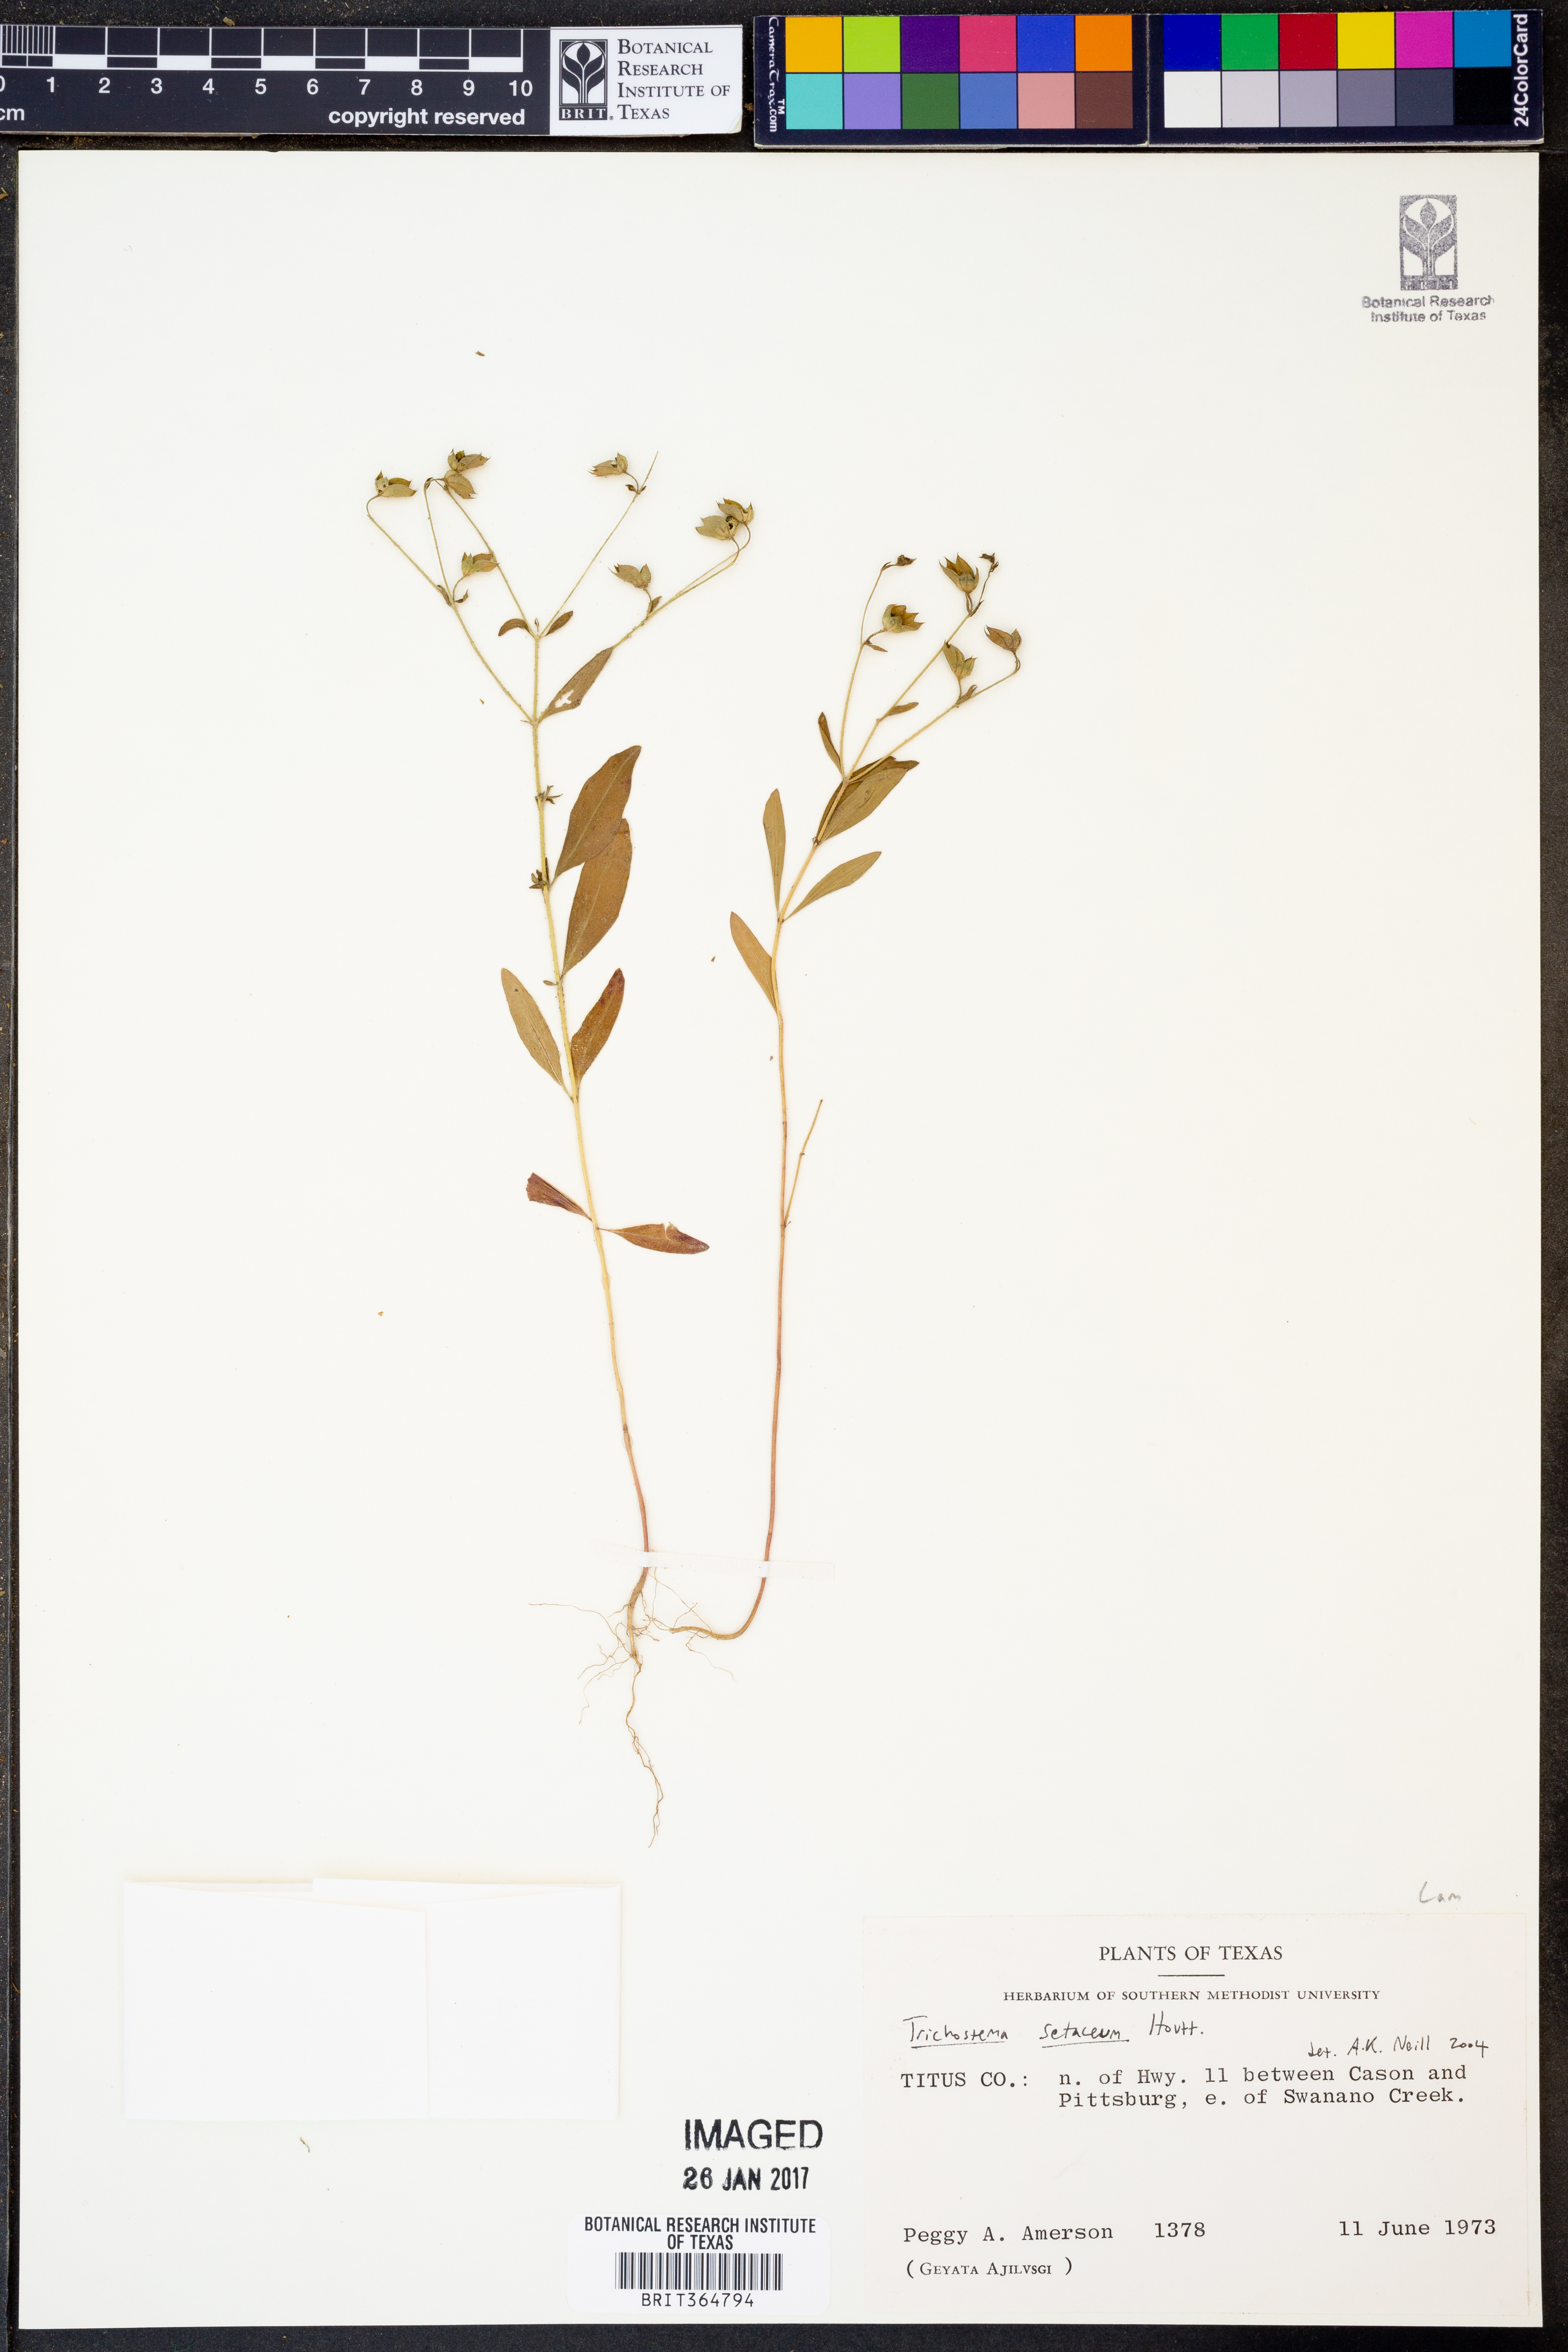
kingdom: Plantae
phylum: Tracheophyta
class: Magnoliopsida
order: Lamiales
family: Lamiaceae
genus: Trichostema
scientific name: Trichostema setaceum
